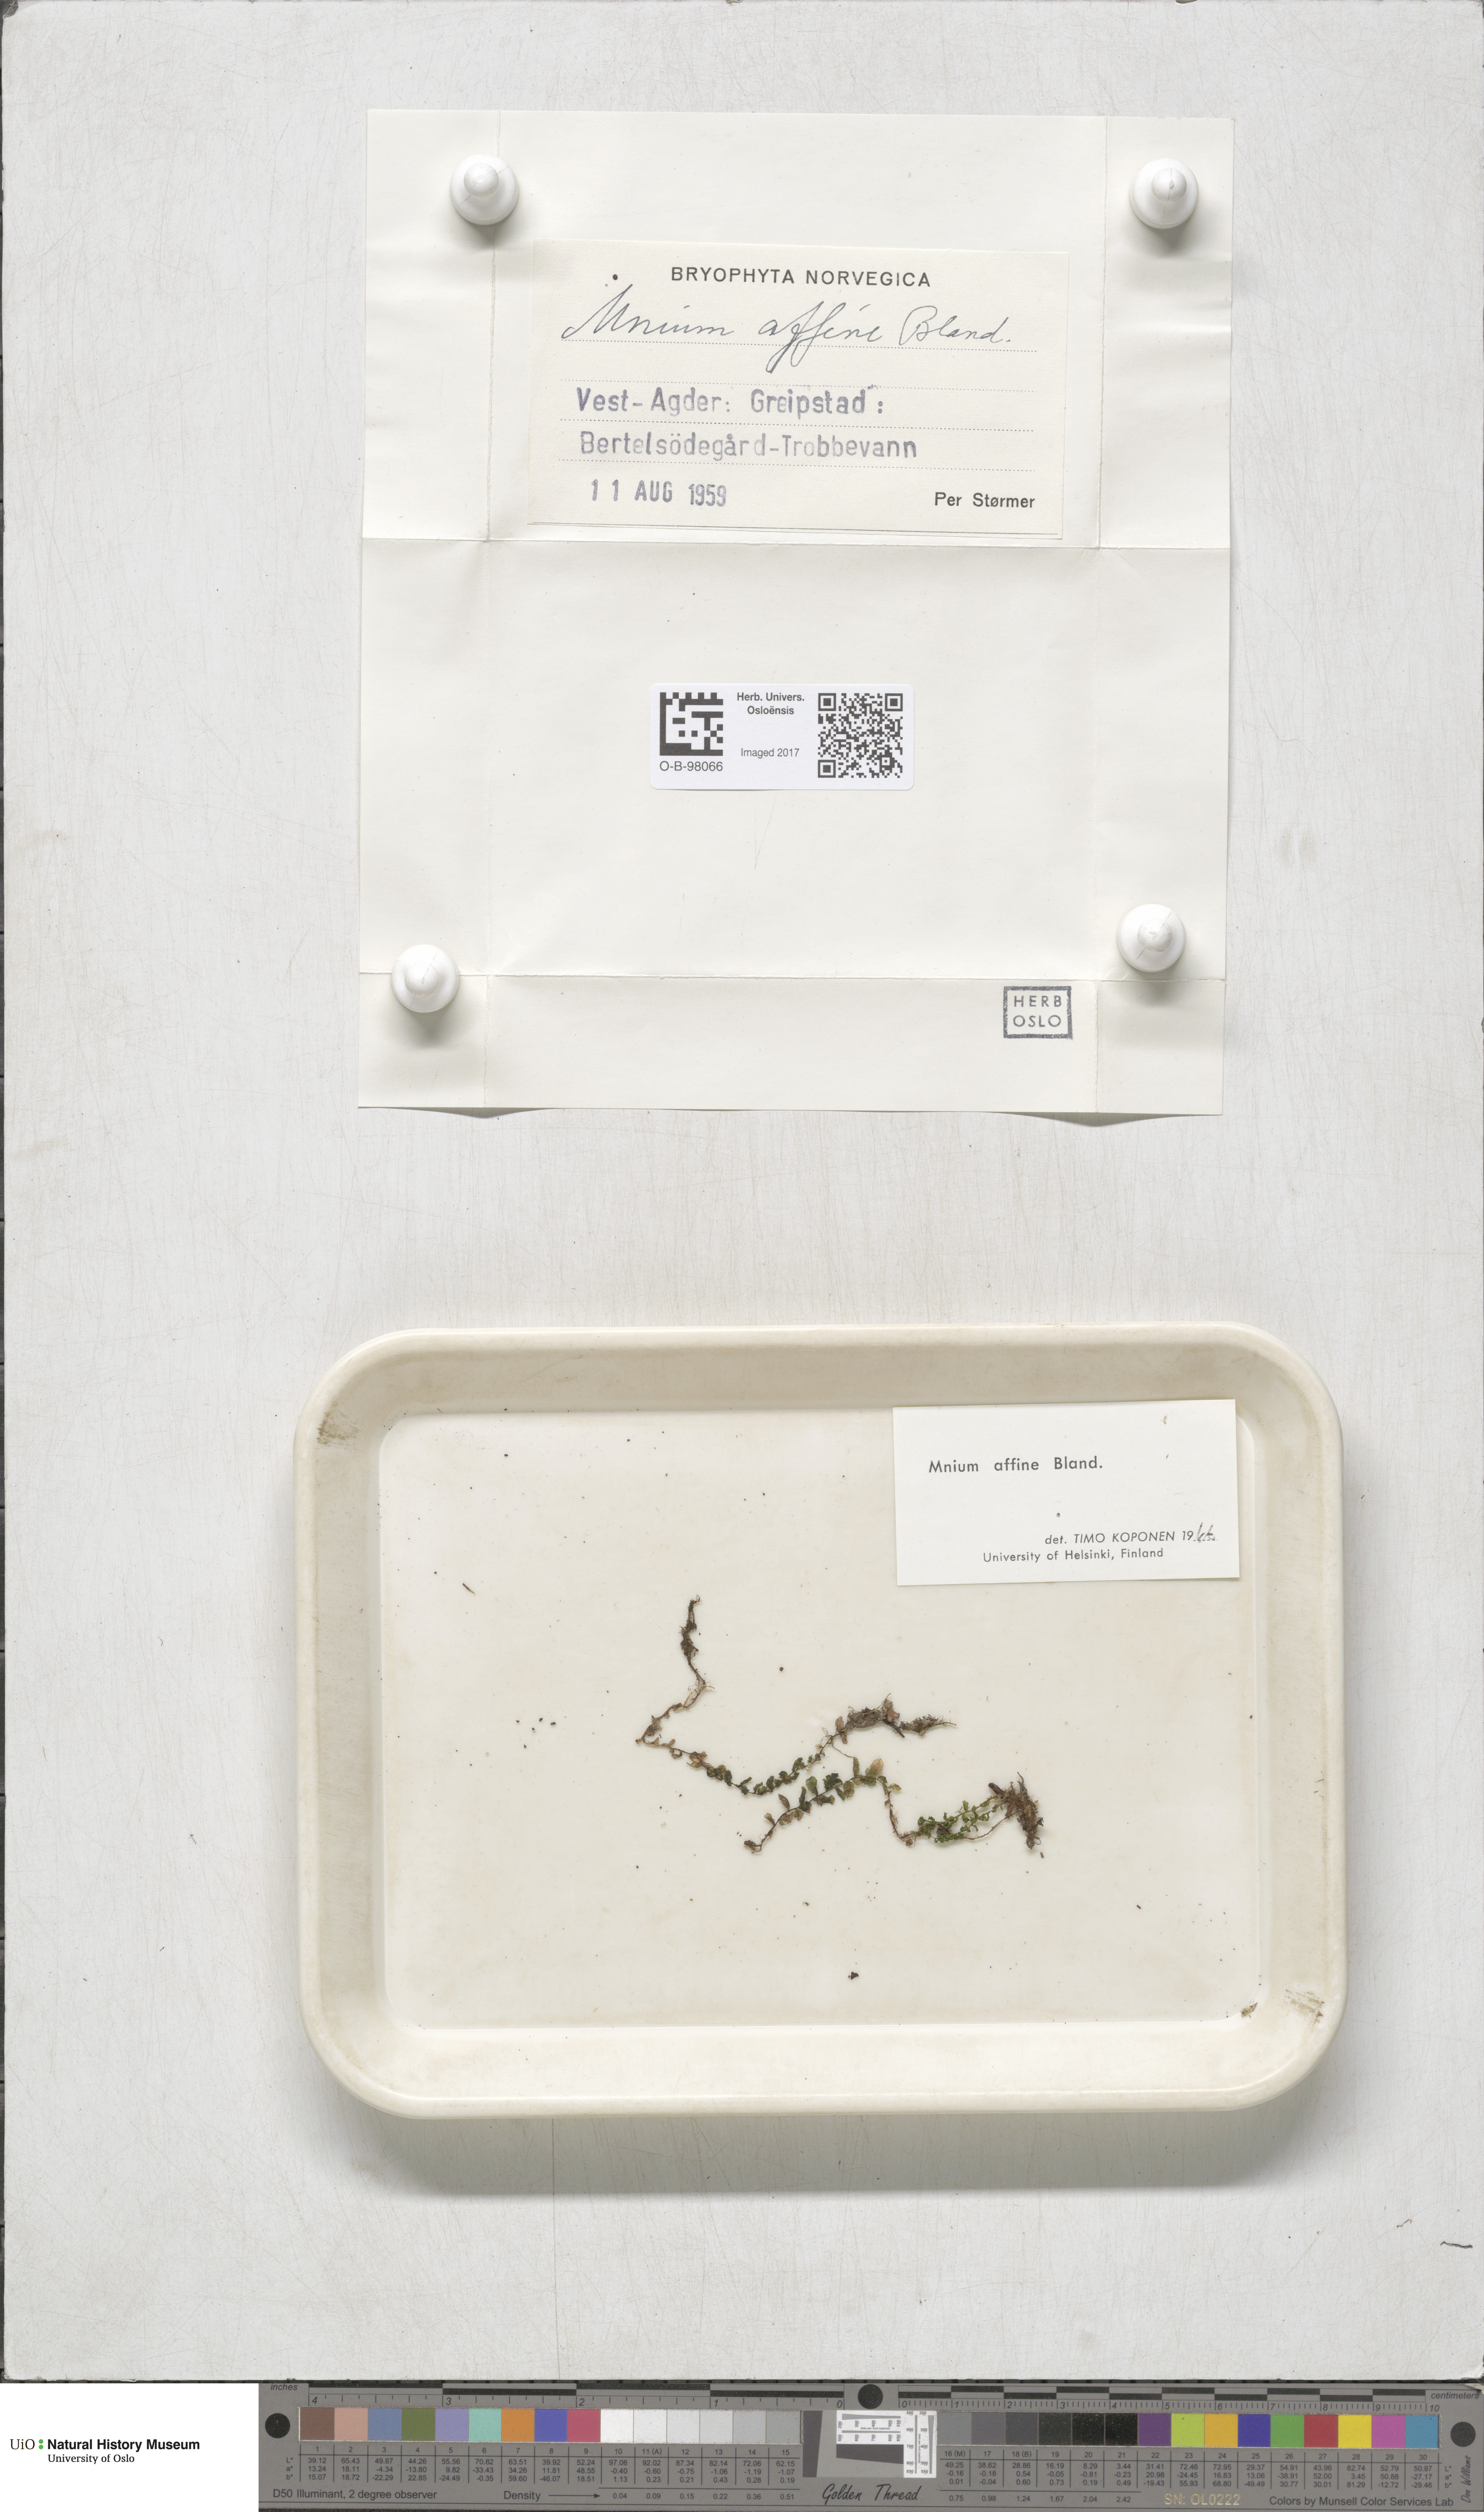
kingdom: Plantae
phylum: Bryophyta
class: Bryopsida
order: Bryales
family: Mniaceae
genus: Plagiomnium
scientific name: Plagiomnium affine
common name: Many-fruited thyme-moss
